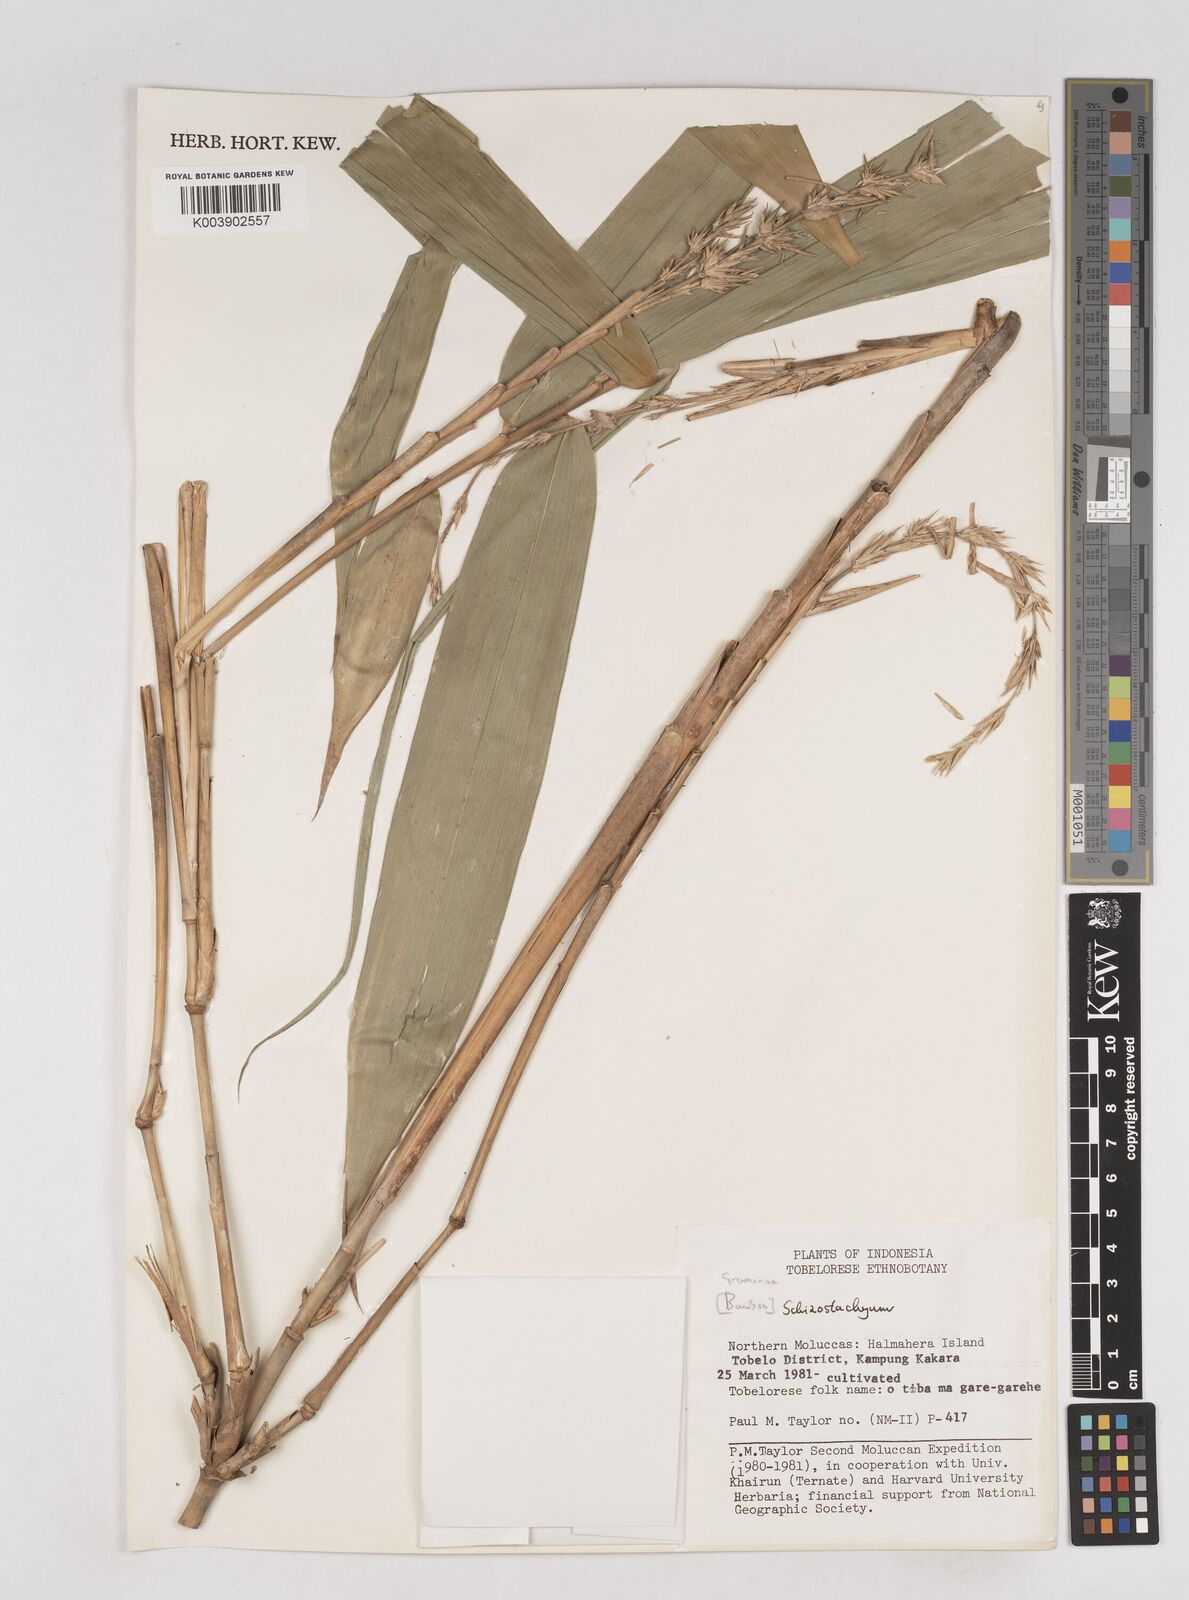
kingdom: Plantae
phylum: Tracheophyta
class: Liliopsida
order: Poales
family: Poaceae
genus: Schizostachyum
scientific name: Schizostachyum
